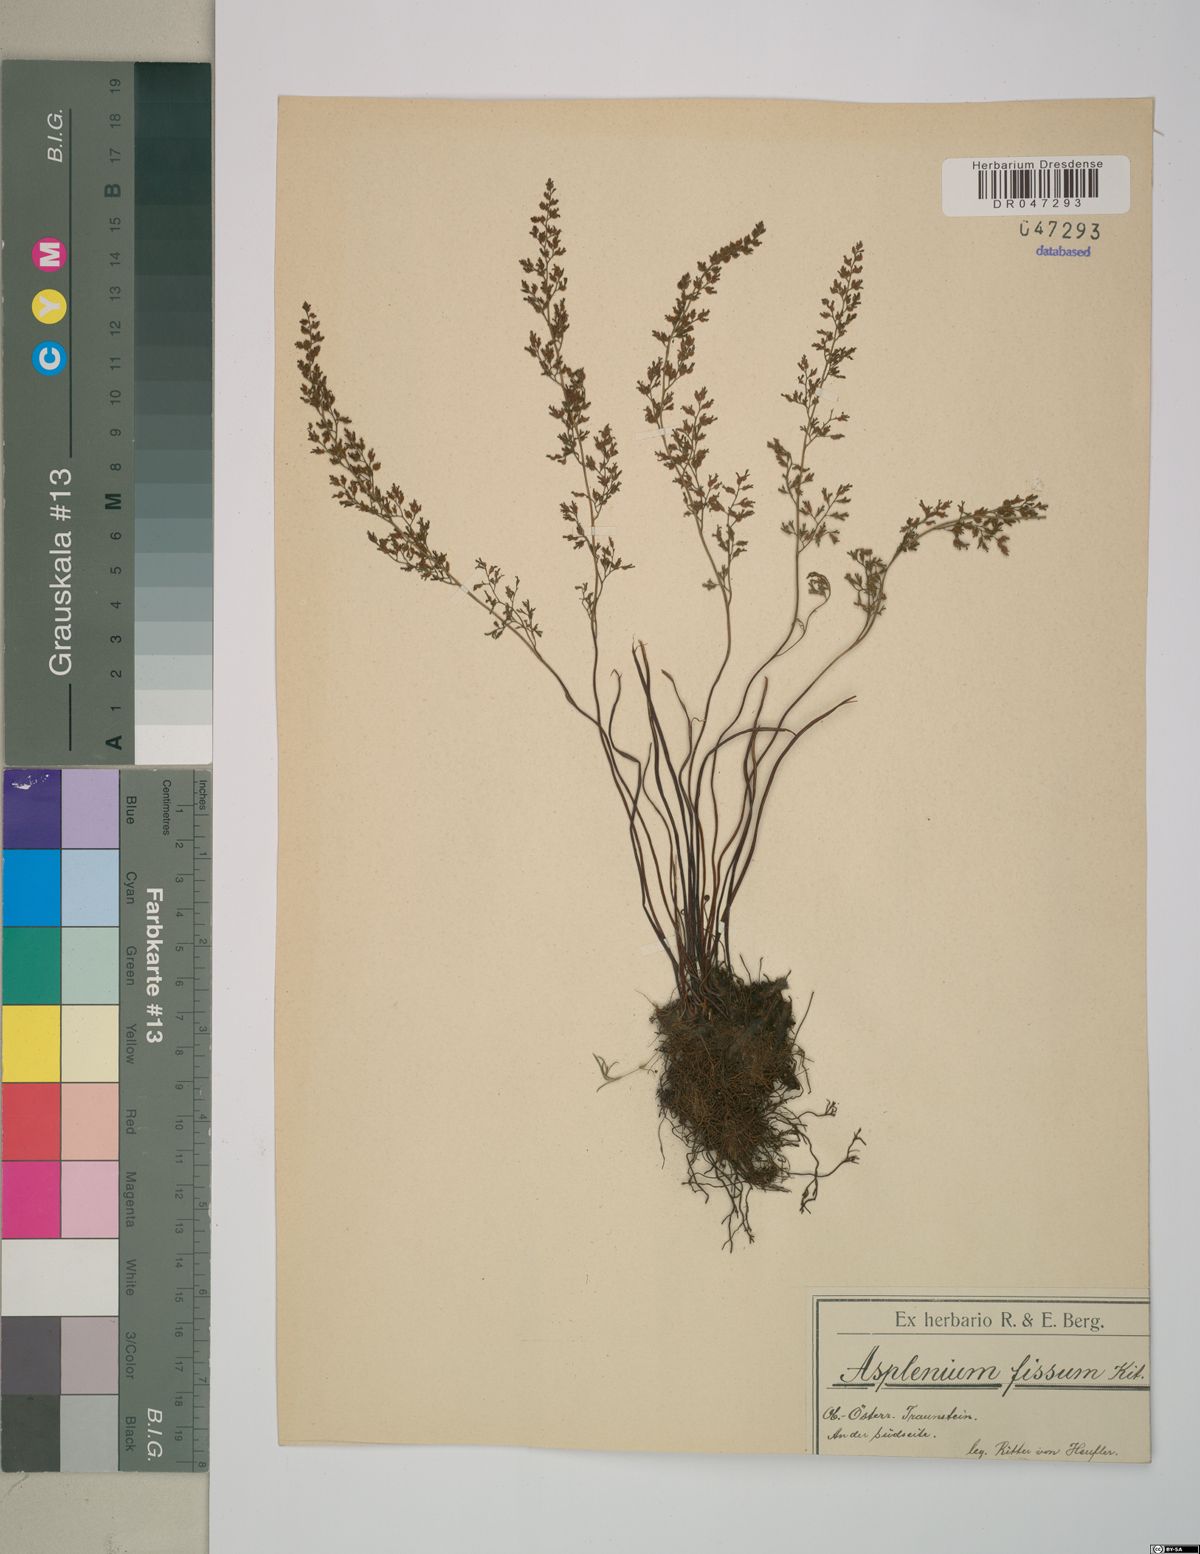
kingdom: Plantae
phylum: Tracheophyta
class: Polypodiopsida
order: Polypodiales
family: Aspleniaceae
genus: Asplenium
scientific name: Asplenium fissum
